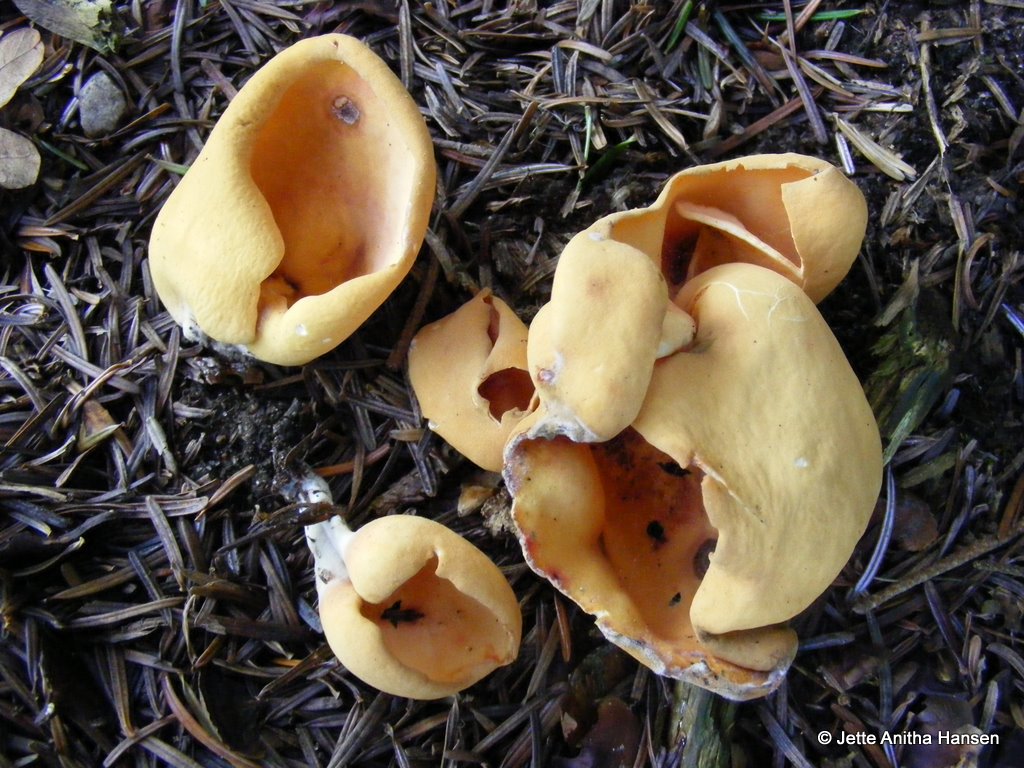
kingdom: Fungi
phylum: Ascomycota
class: Pezizomycetes
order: Pezizales
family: Otideaceae
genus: Otidea
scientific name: Otidea onotica
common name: æsel-ørebæger
